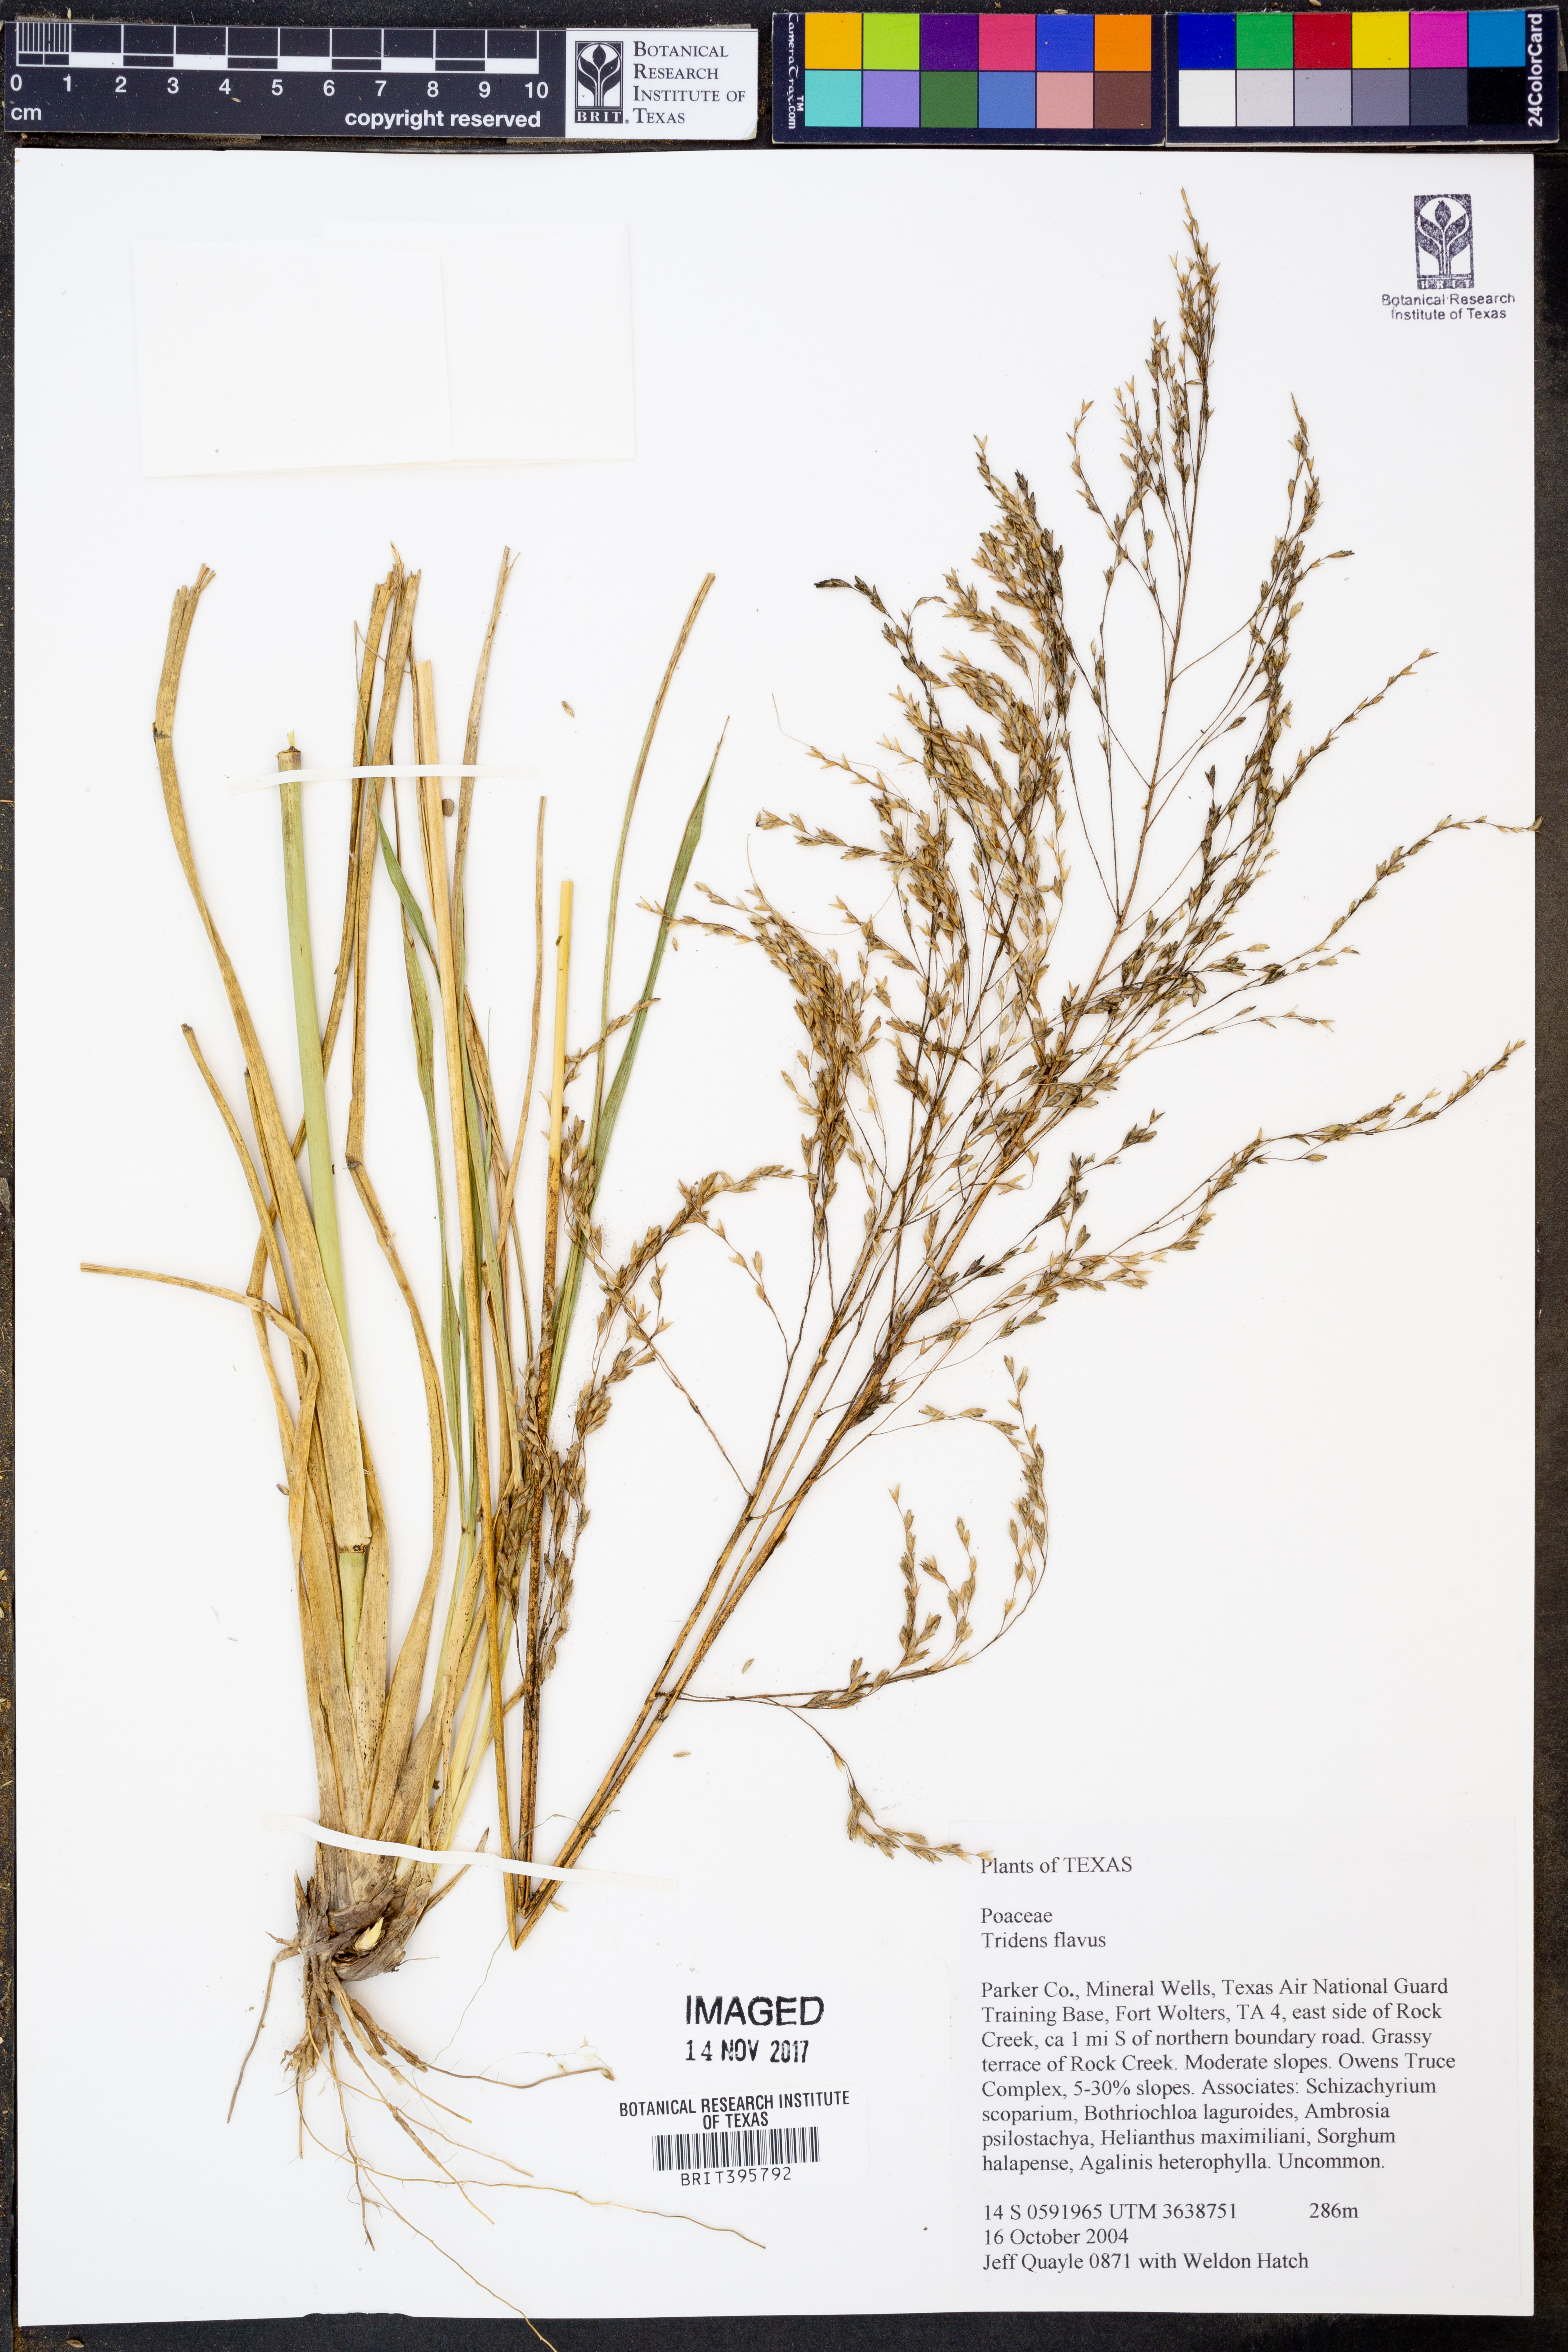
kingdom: Plantae
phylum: Tracheophyta
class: Liliopsida
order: Poales
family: Poaceae
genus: Tridens
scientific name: Tridens flavus
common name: Purpletop
